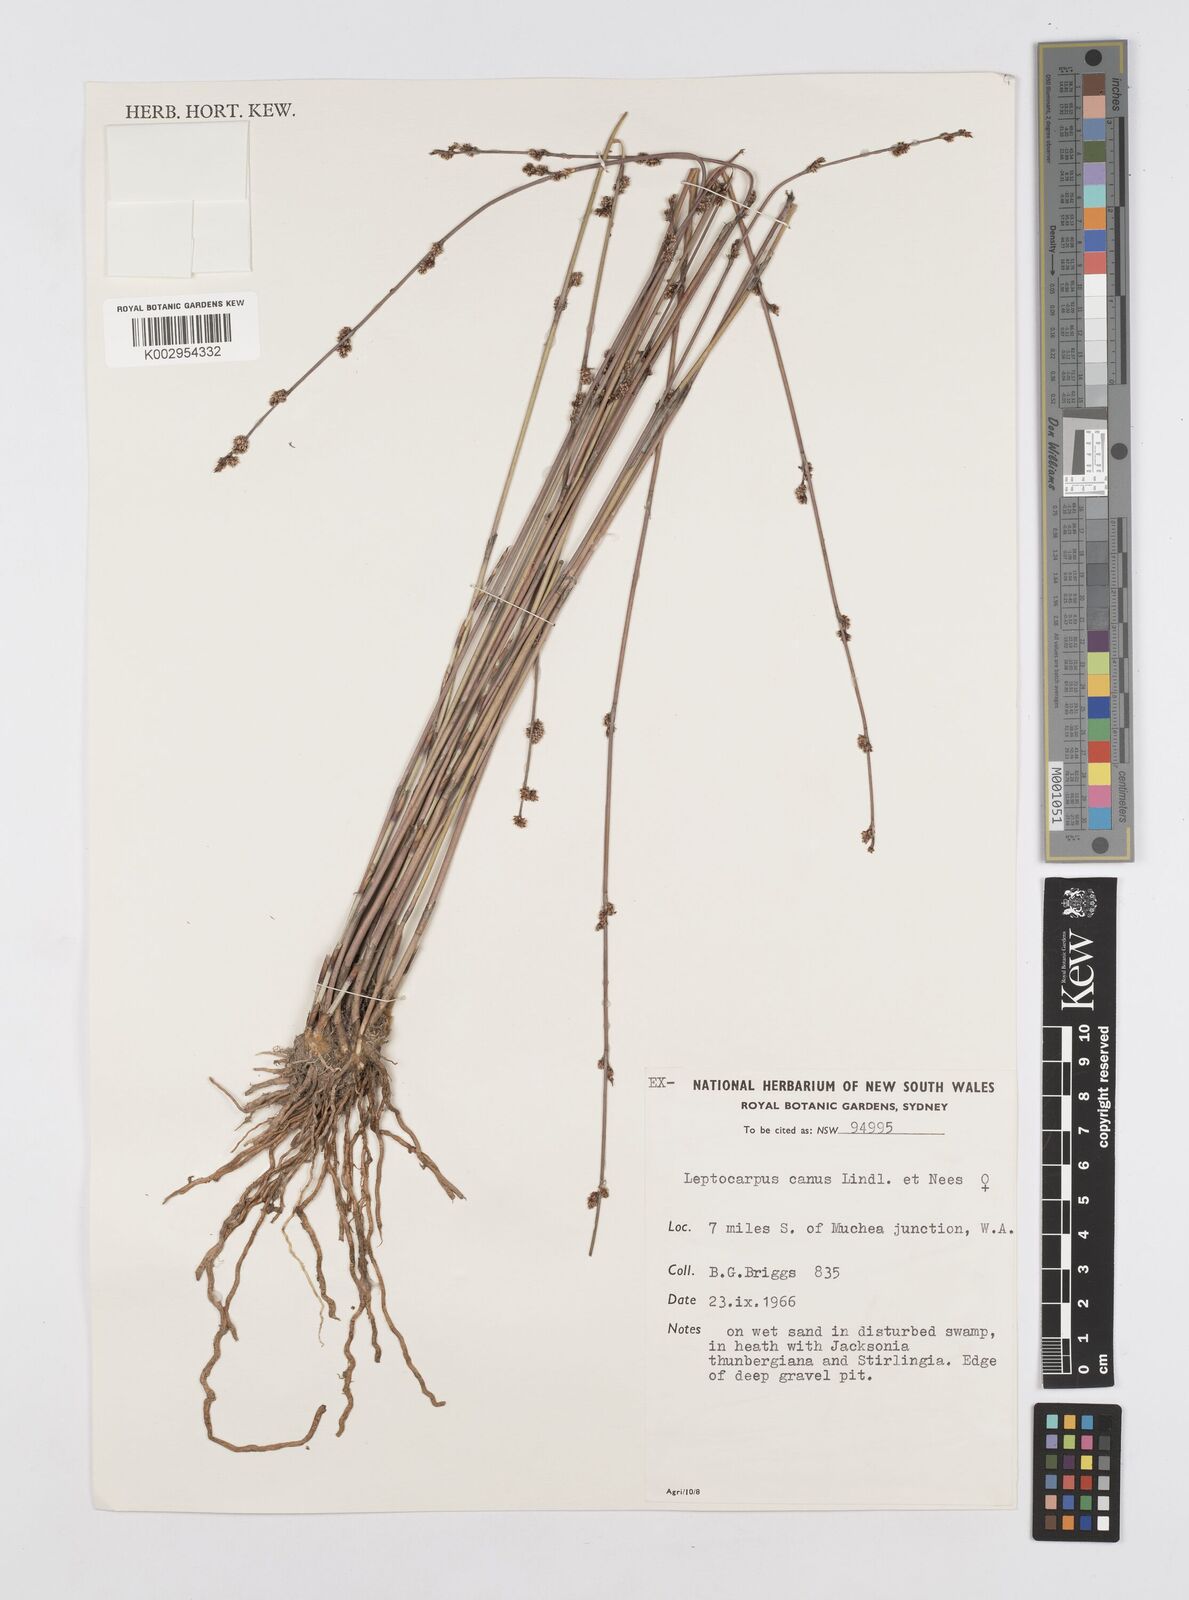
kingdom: Plantae
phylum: Tracheophyta
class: Liliopsida
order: Poales
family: Restionaceae
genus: Leptocarpus
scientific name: Leptocarpus canus
